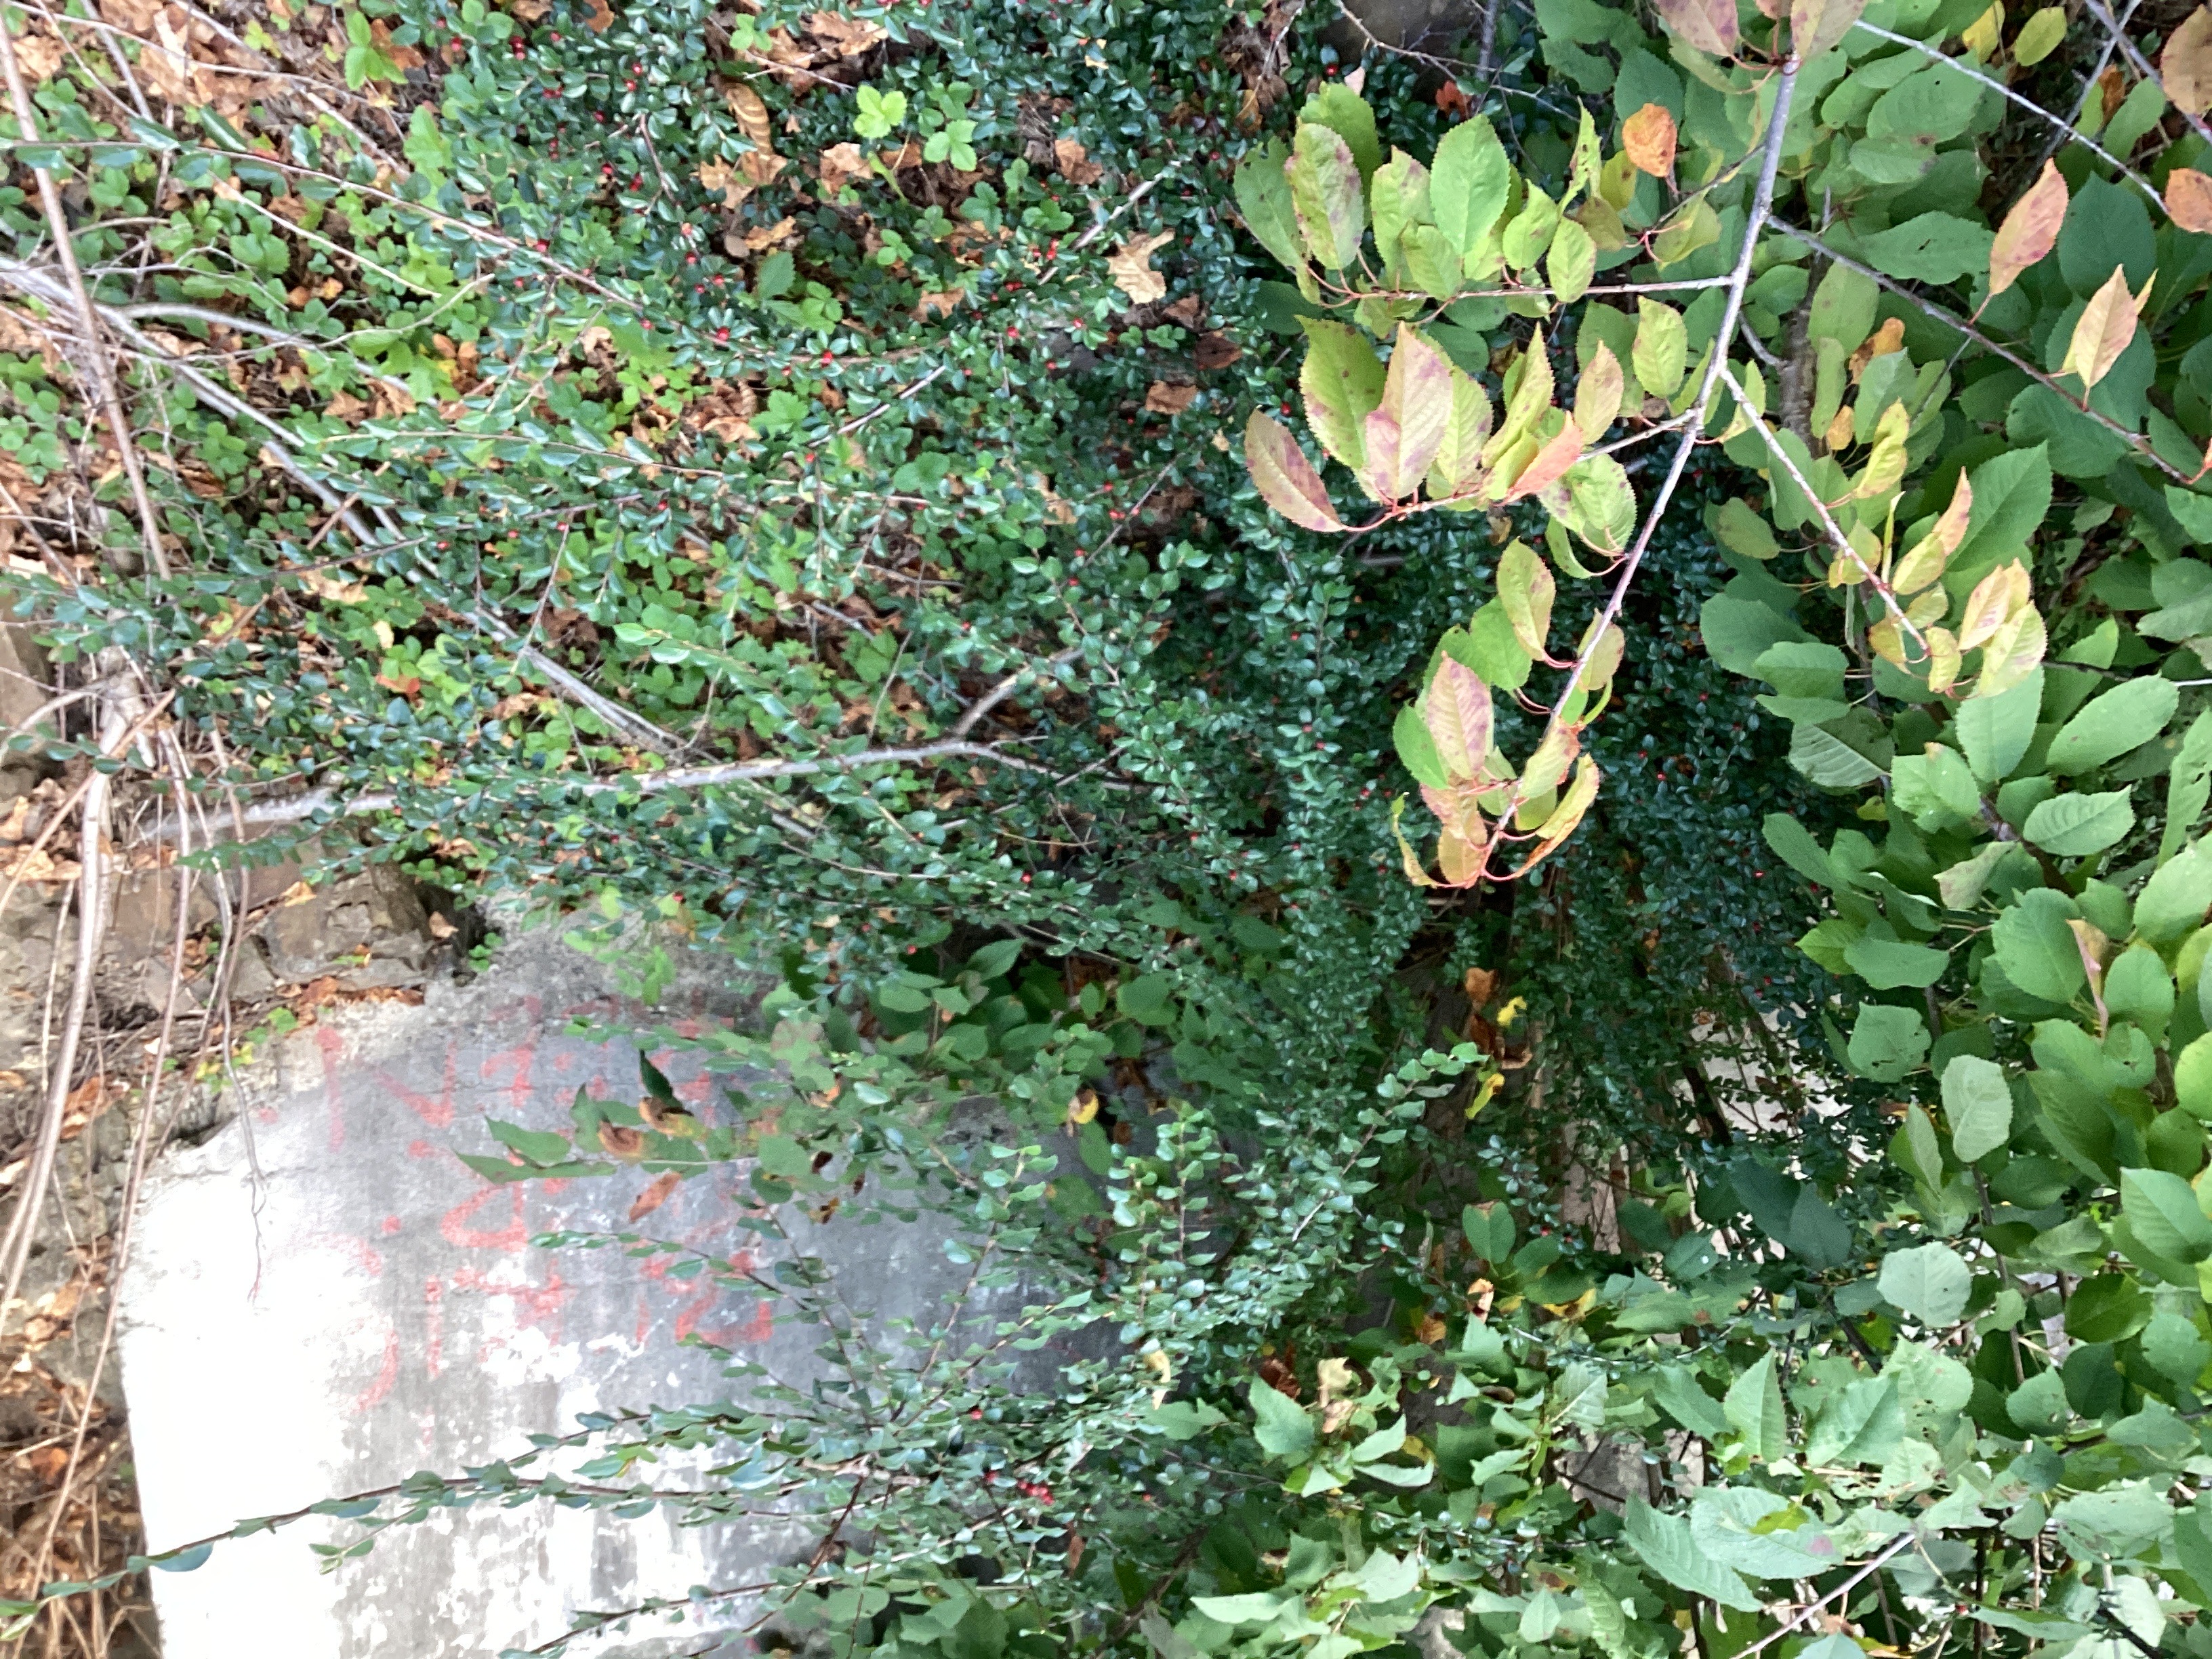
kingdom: Plantae
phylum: Tracheophyta
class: Magnoliopsida
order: Rosales
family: Rosaceae
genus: Cotoneaster
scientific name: Cotoneaster divaricatus
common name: sprikemispel
